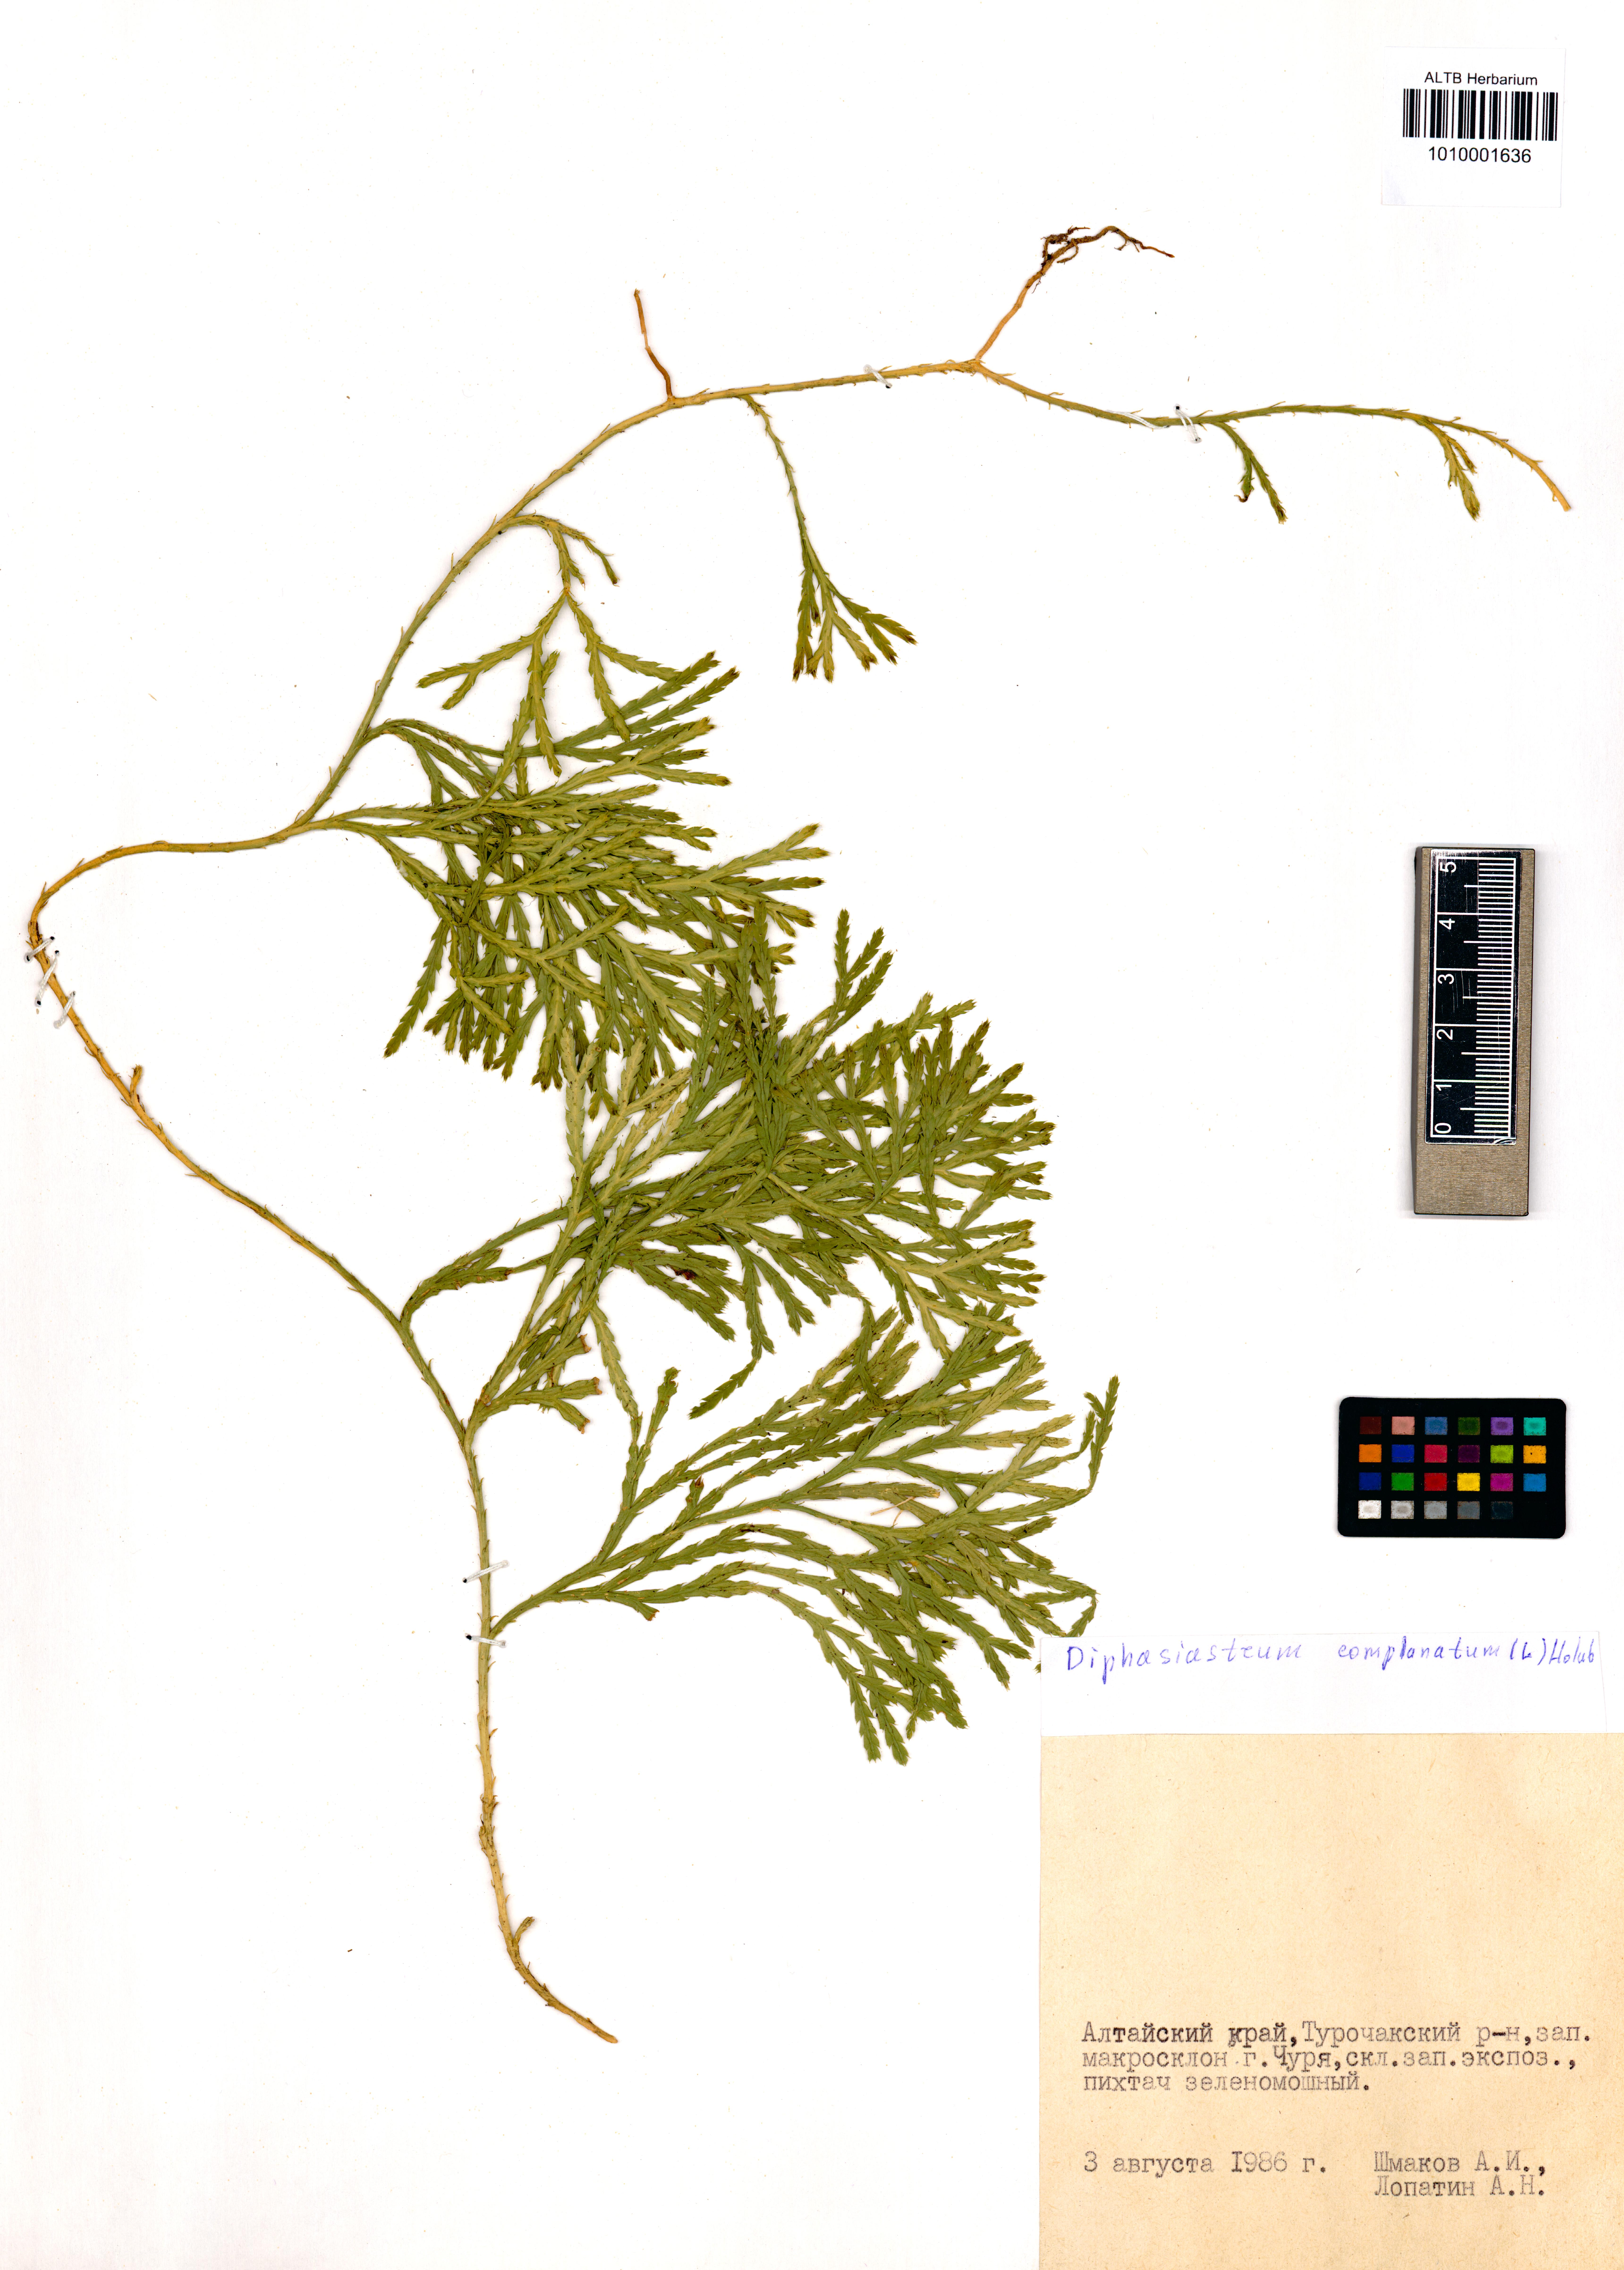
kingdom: Plantae
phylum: Tracheophyta
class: Lycopodiopsida
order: Lycopodiales
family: Lycopodiaceae
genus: Diphasiastrum
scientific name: Diphasiastrum complanatum
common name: Northern running-pine
